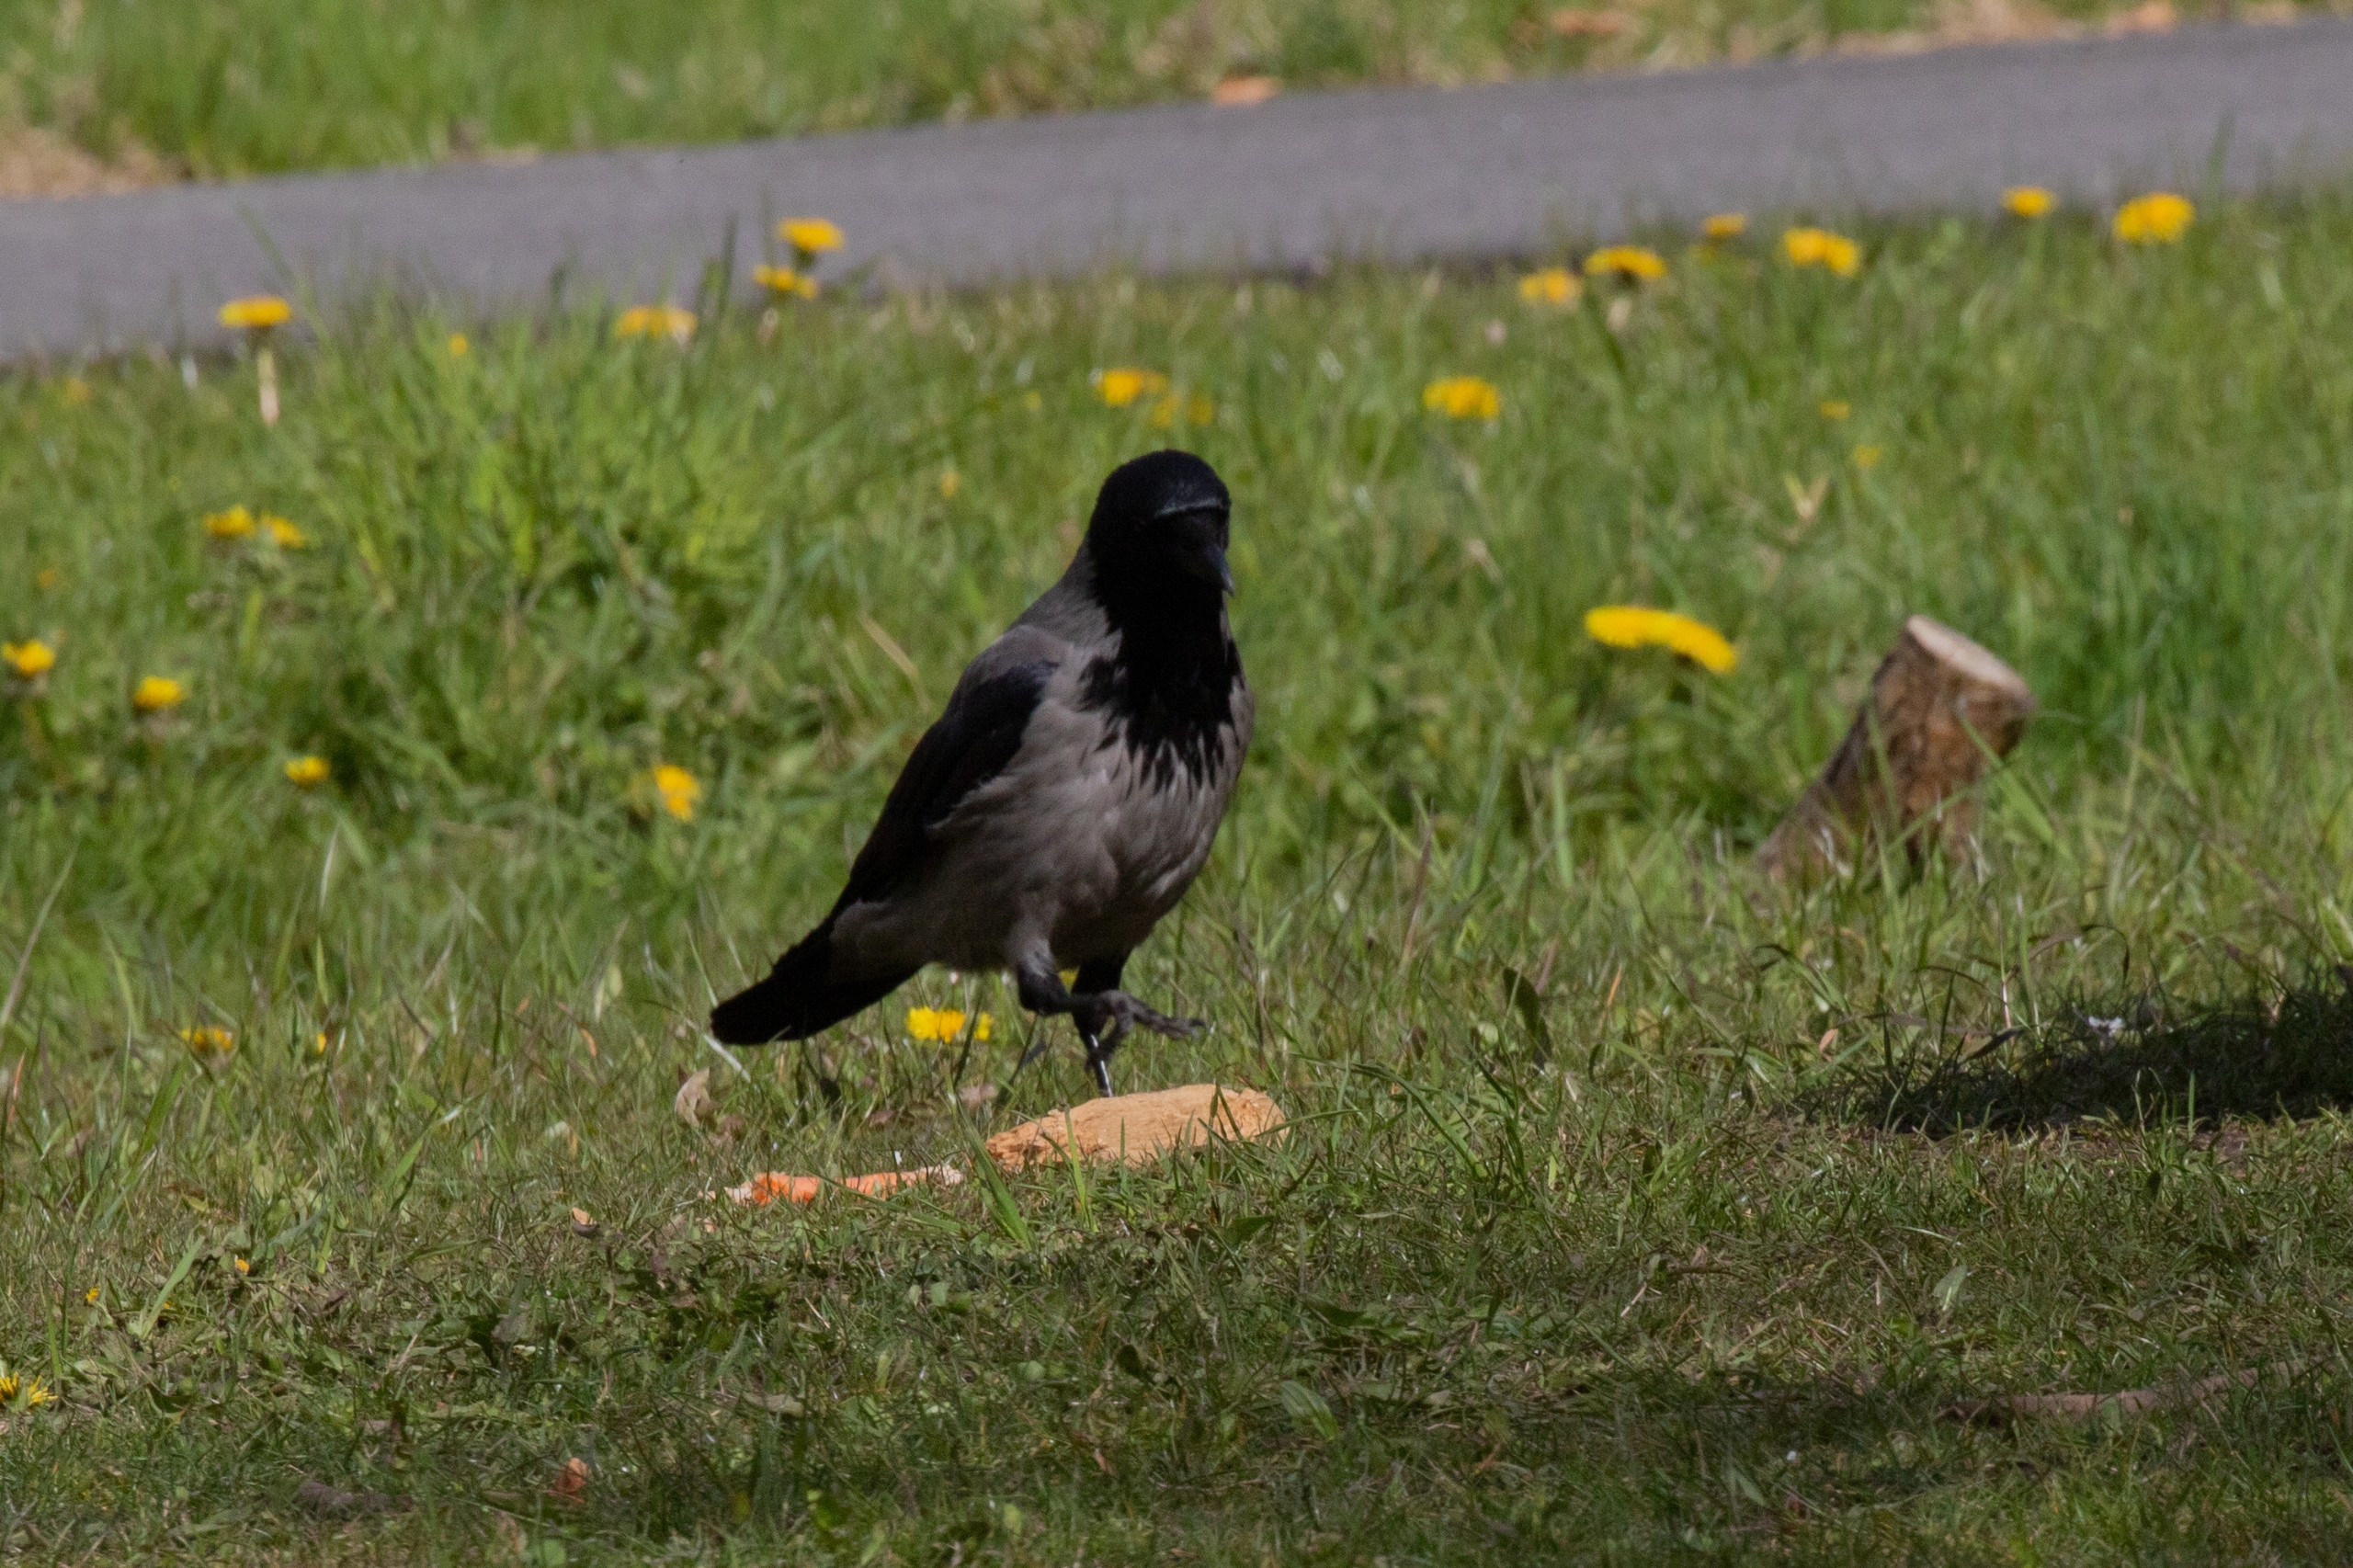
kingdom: Animalia
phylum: Chordata
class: Aves
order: Passeriformes
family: Corvidae
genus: Corvus
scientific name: Corvus cornix
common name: Gråkrage
